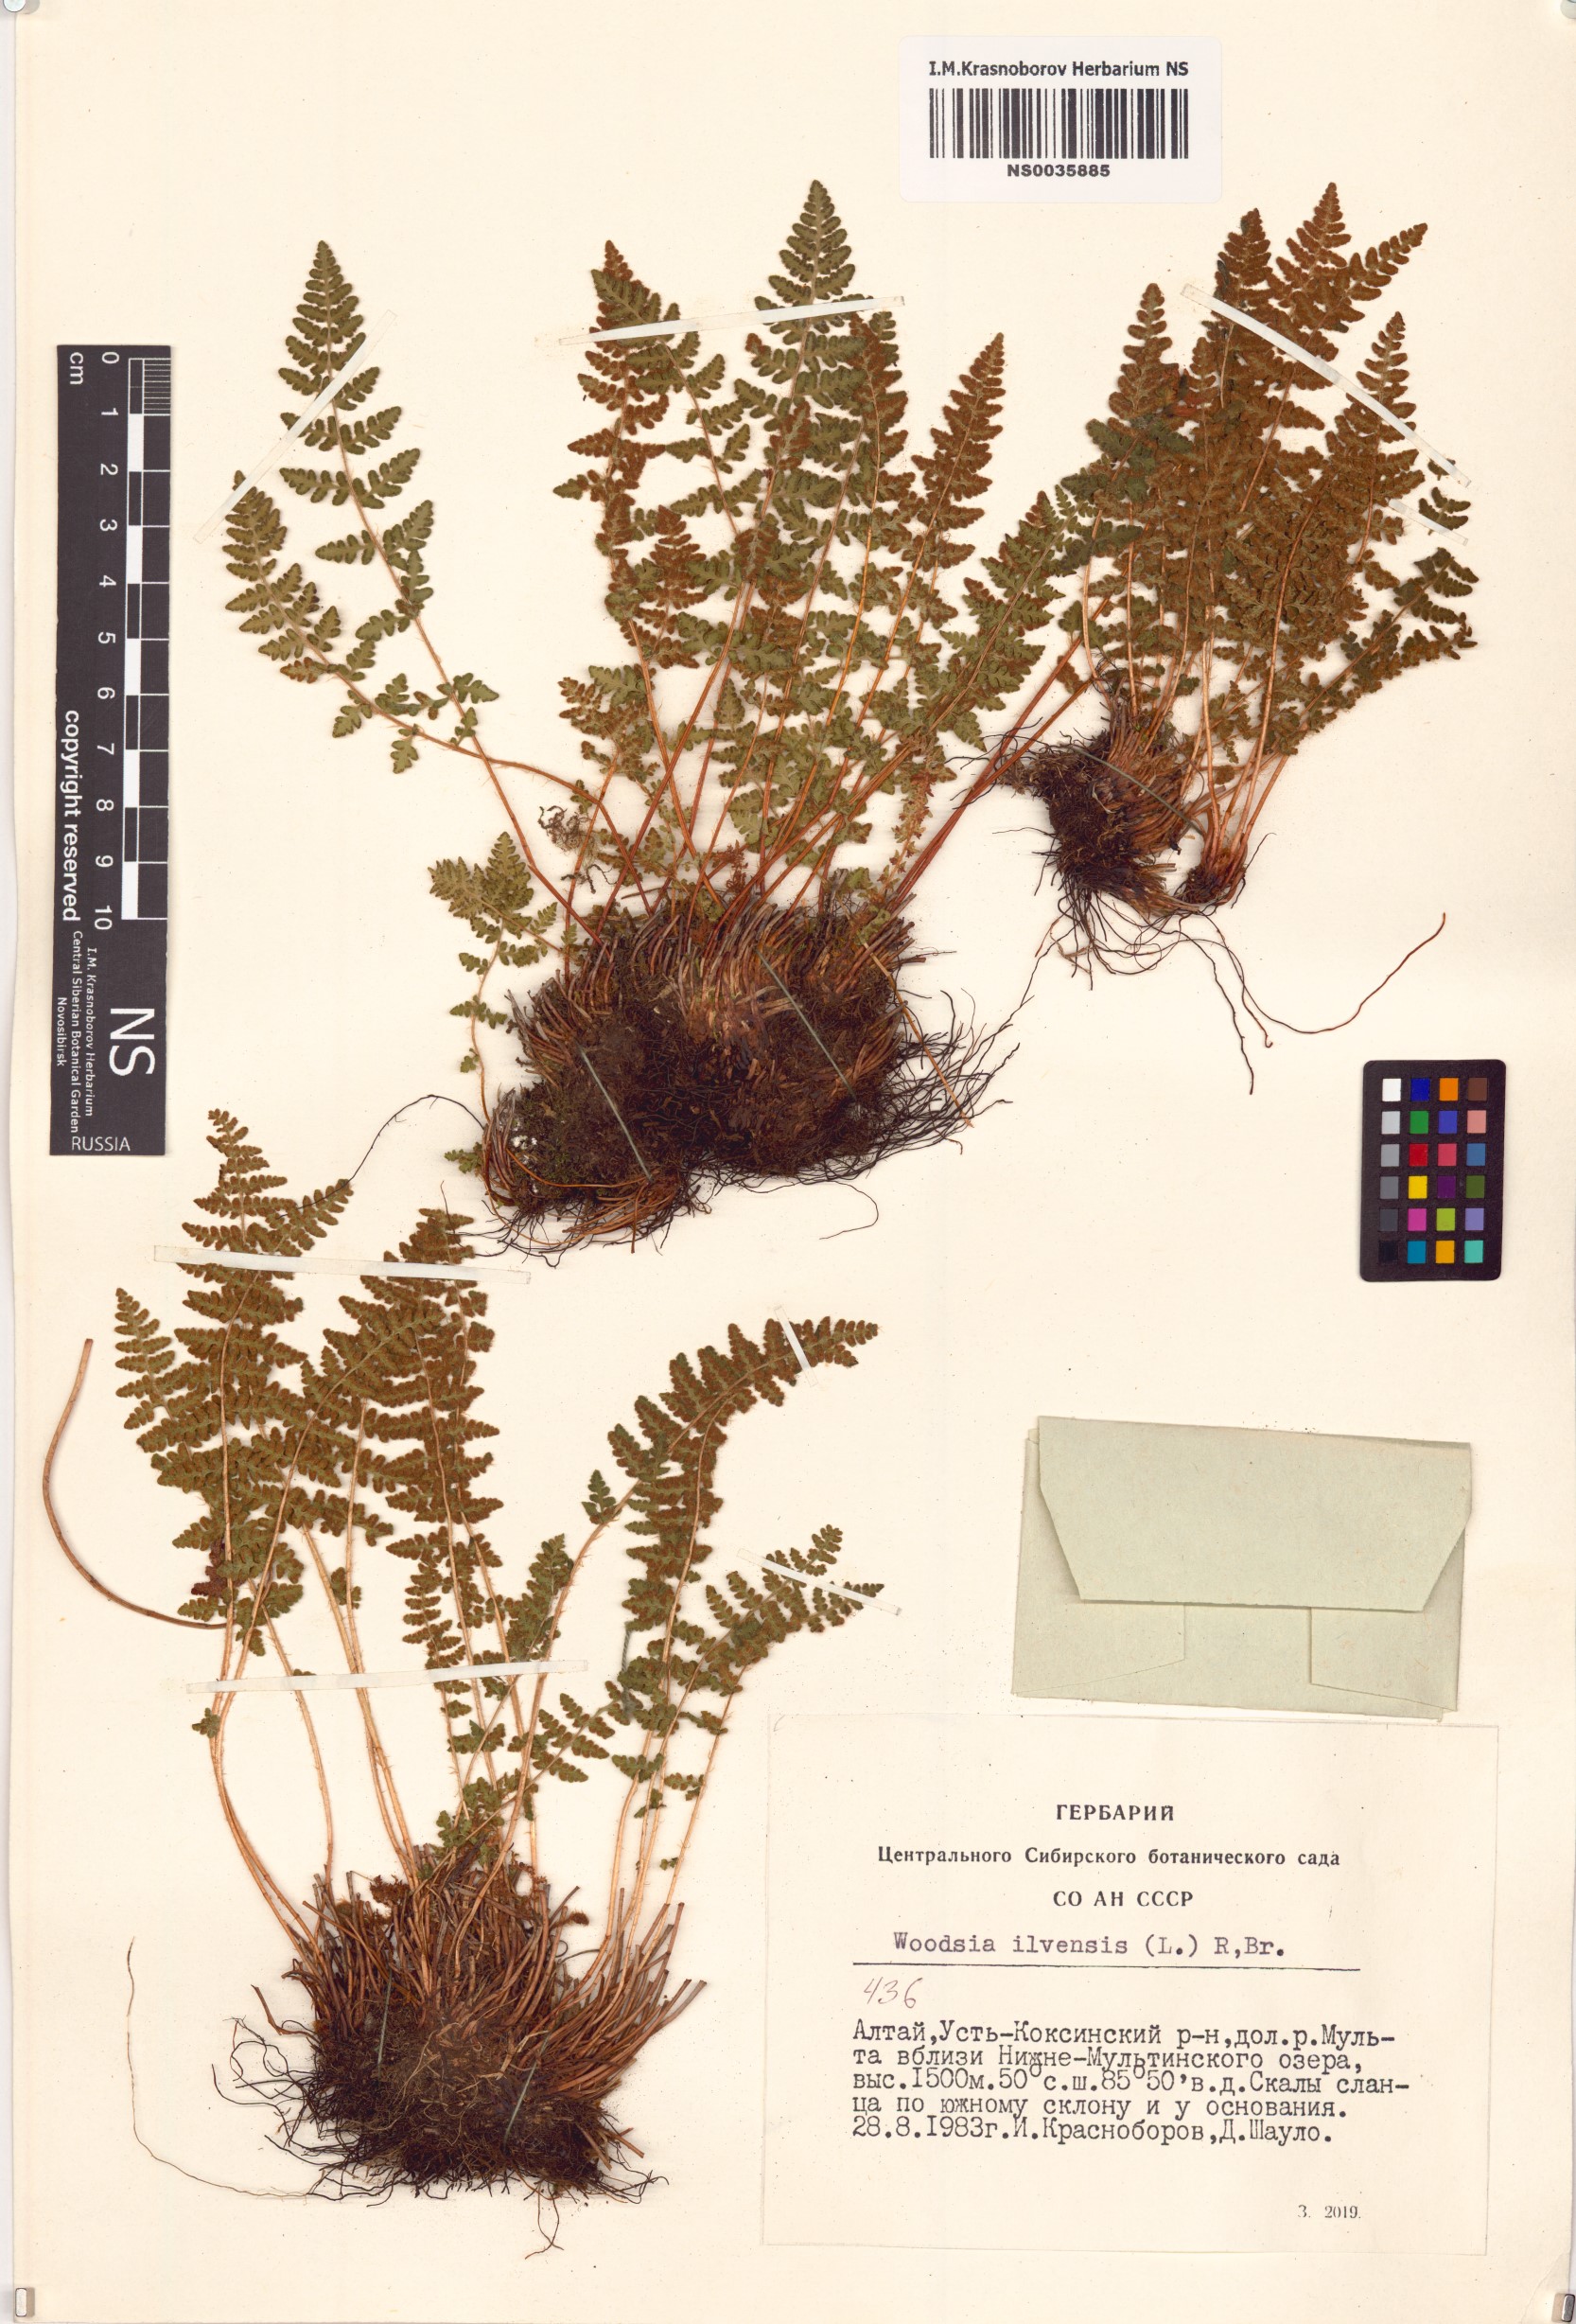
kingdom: Plantae
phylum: Tracheophyta
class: Polypodiopsida
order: Polypodiales
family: Woodsiaceae
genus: Woodsia
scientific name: Woodsia ilvensis
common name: Fragrant woodsia
